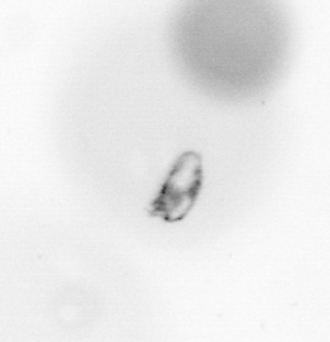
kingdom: Animalia
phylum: Arthropoda
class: Copepoda
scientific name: Copepoda
